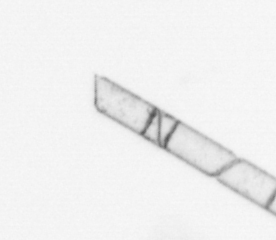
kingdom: Chromista
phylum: Ochrophyta
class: Bacillariophyceae
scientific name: Bacillariophyceae
